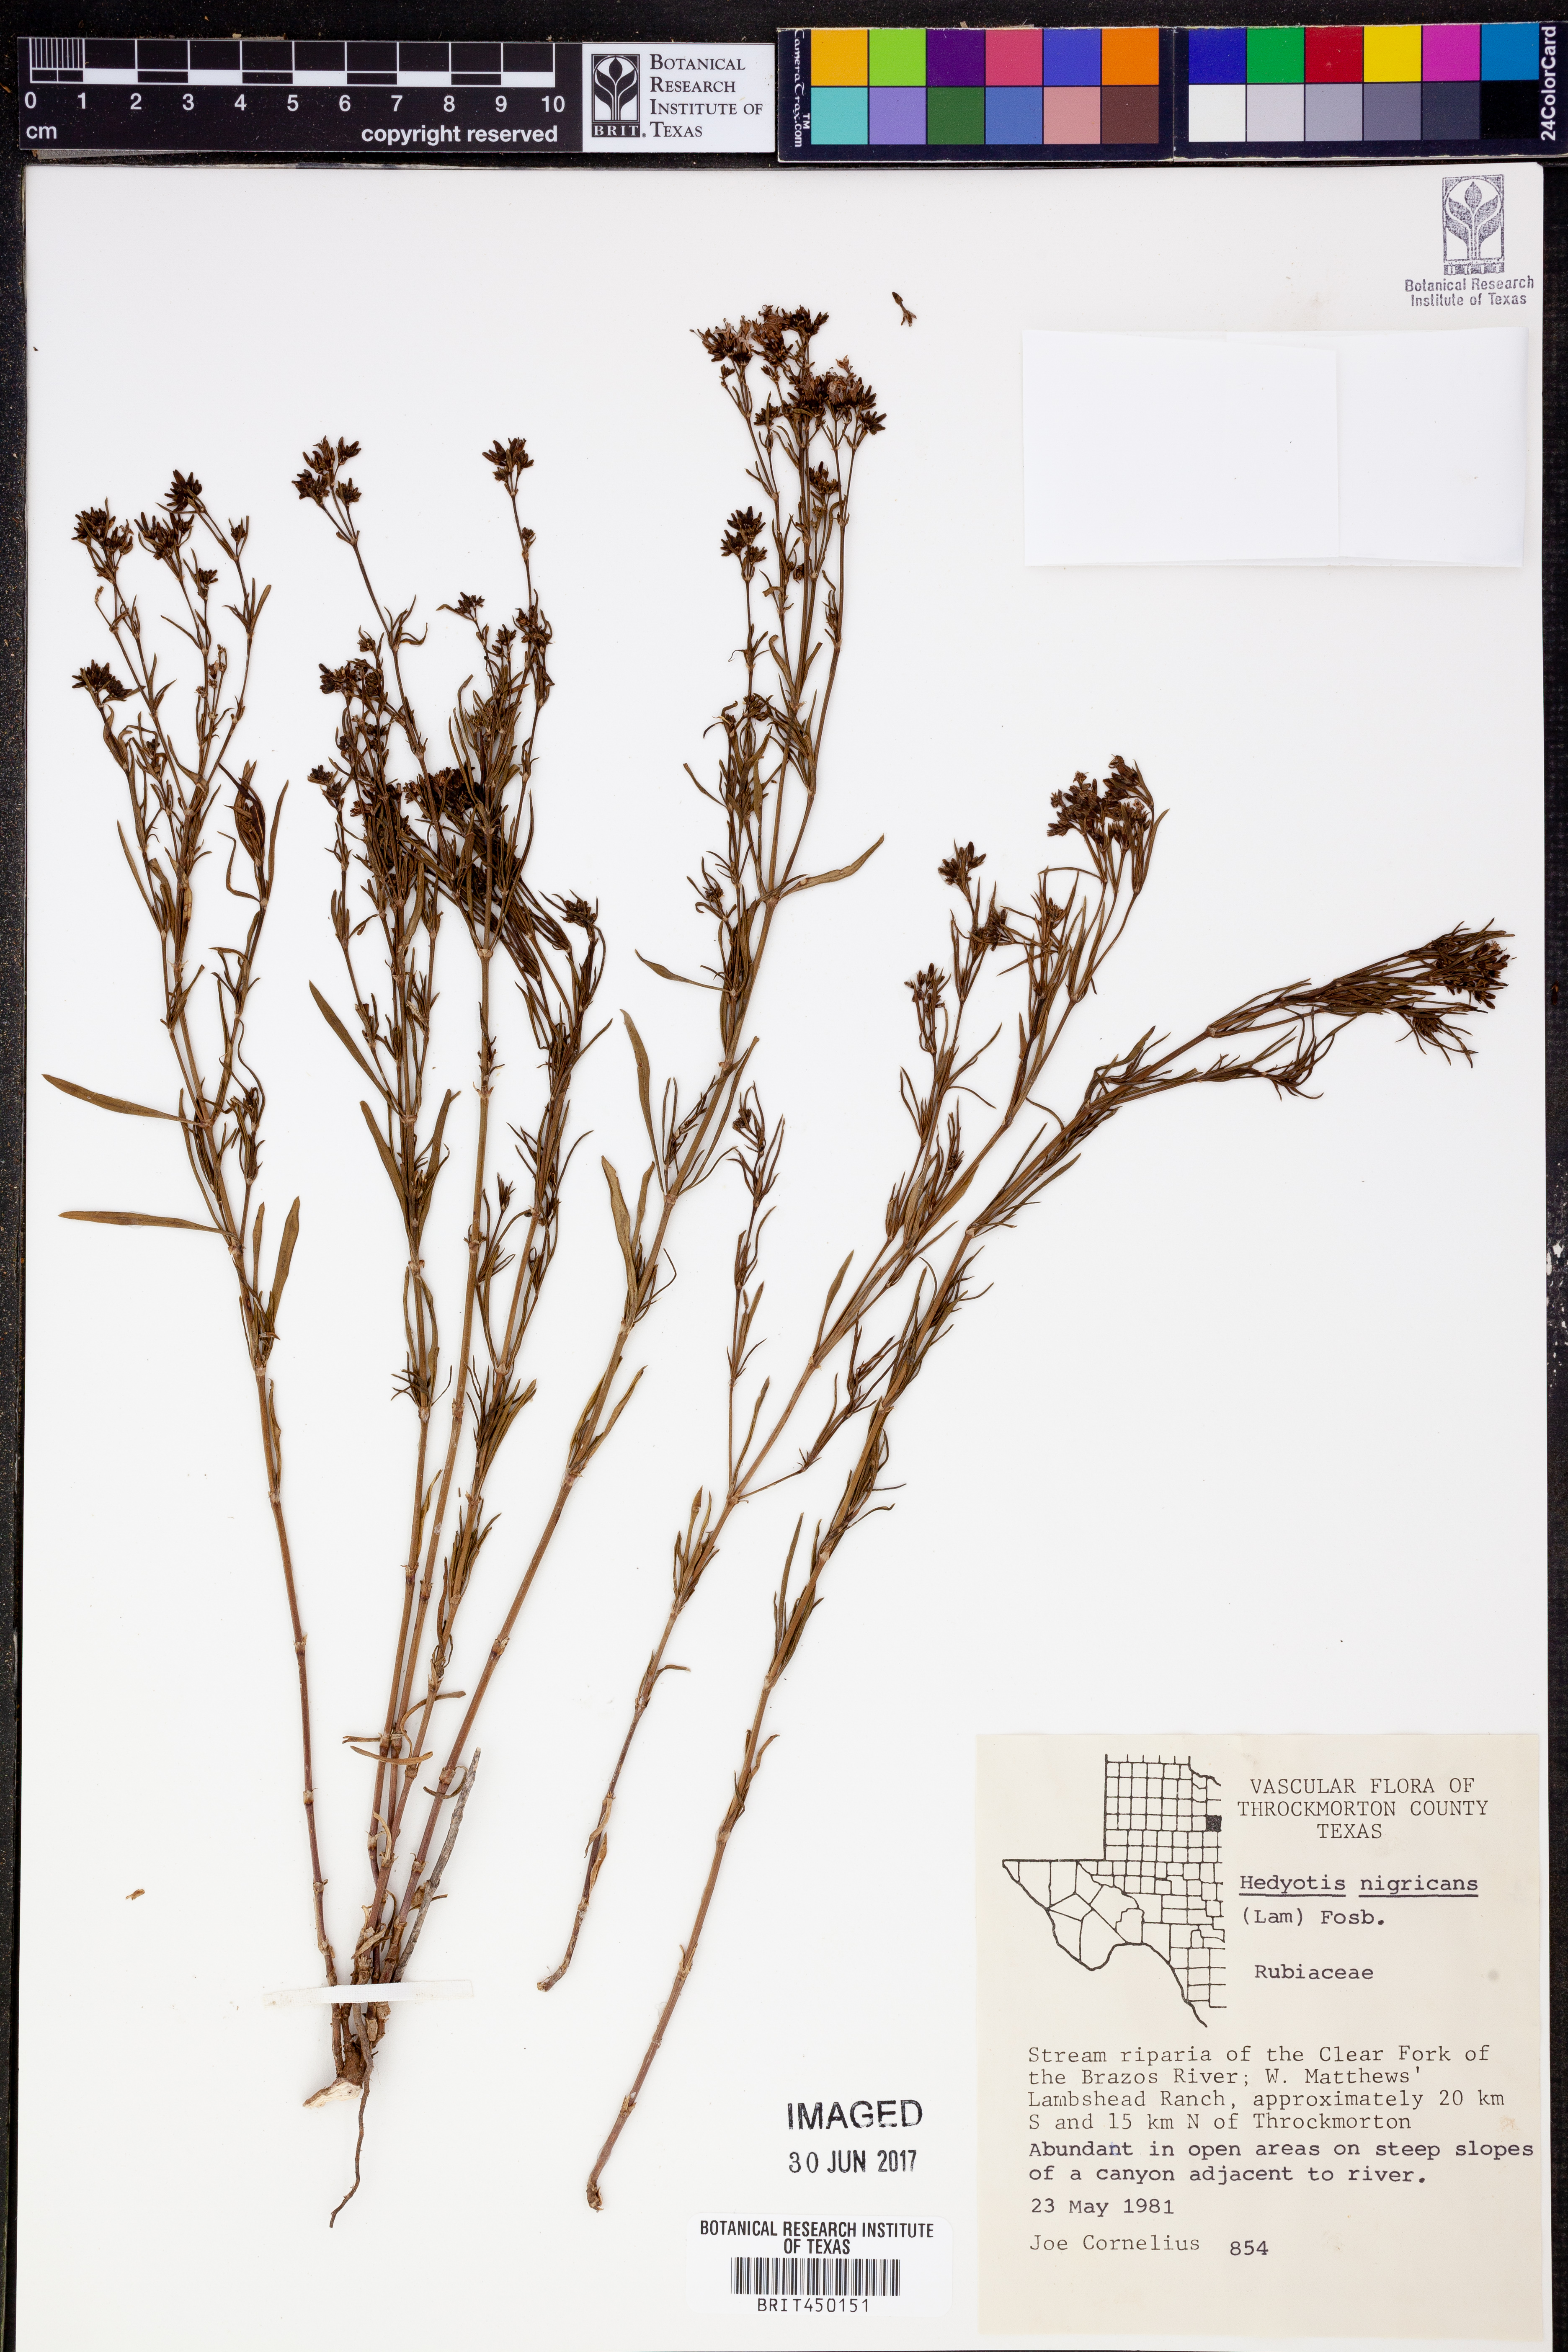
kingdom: Plantae
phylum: Tracheophyta
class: Magnoliopsida
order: Gentianales
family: Rubiaceae
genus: Stenaria
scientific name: Stenaria nigricans
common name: Diamondflowers
